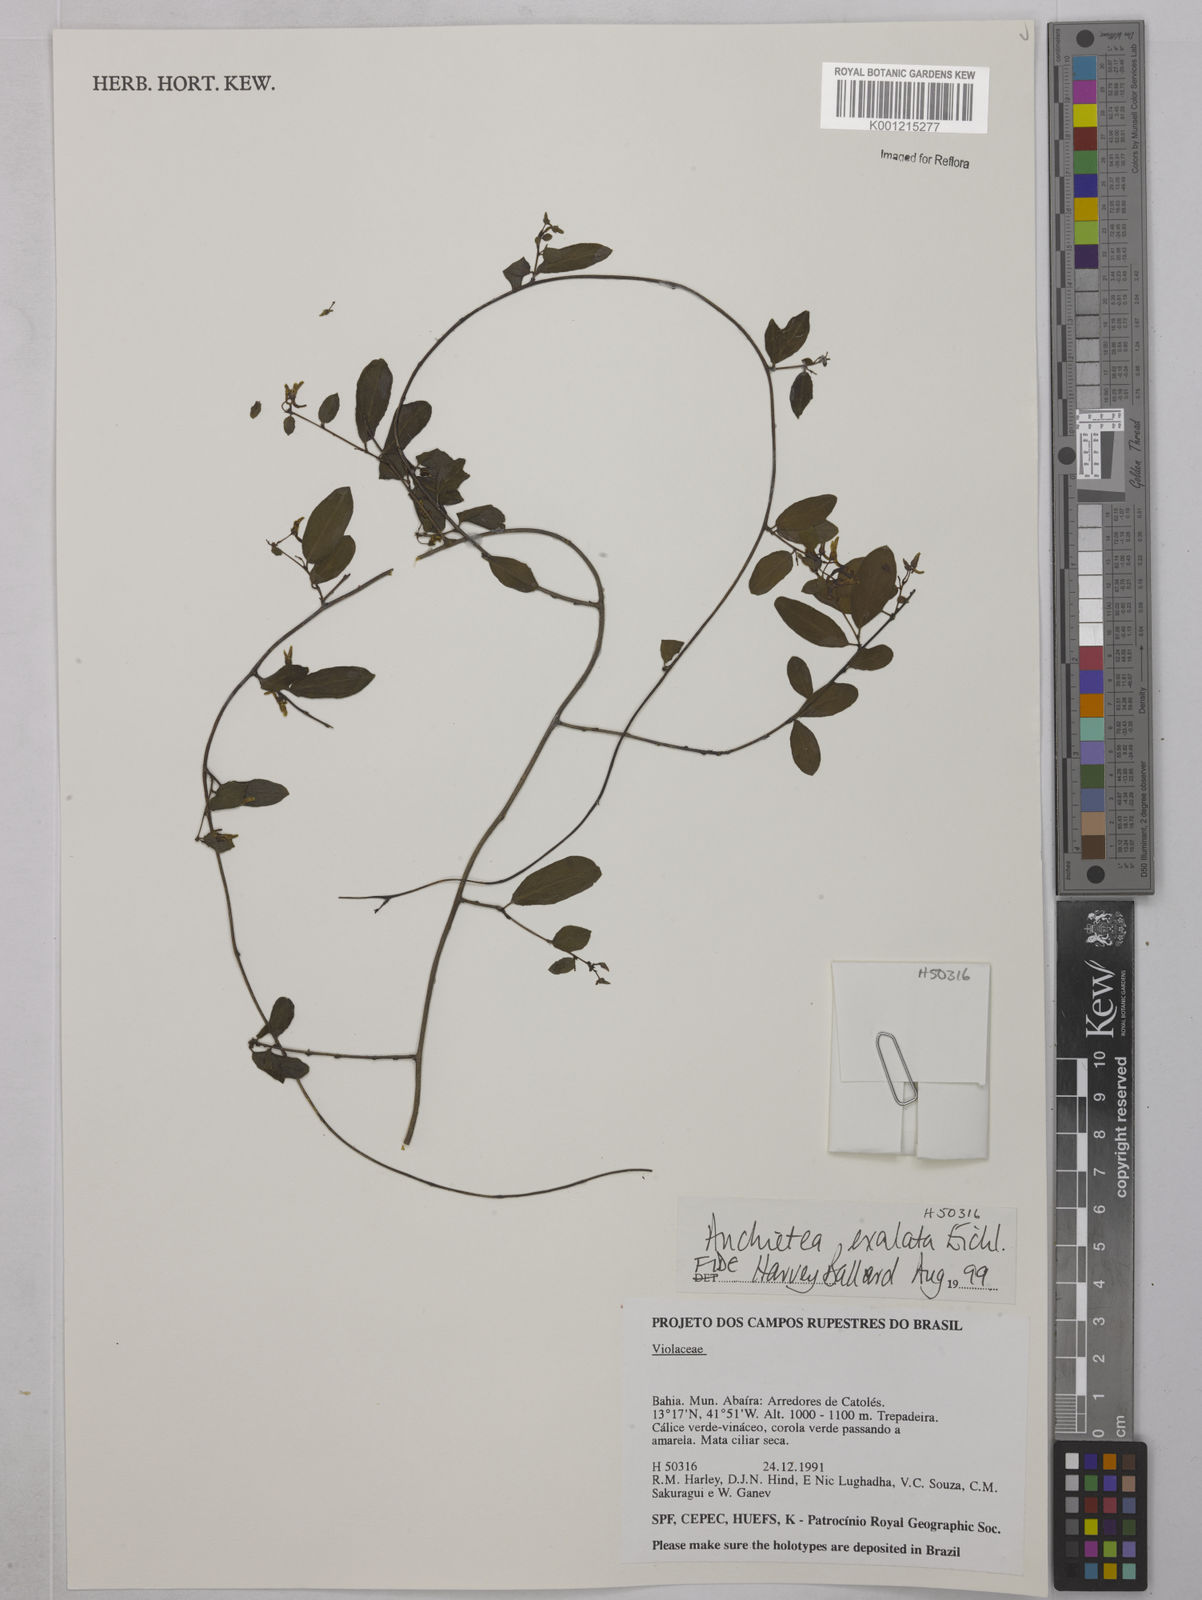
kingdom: Plantae
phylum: Tracheophyta
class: Magnoliopsida
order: Malpighiales
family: Violaceae
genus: Anchietea
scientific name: Anchietea exaltata
